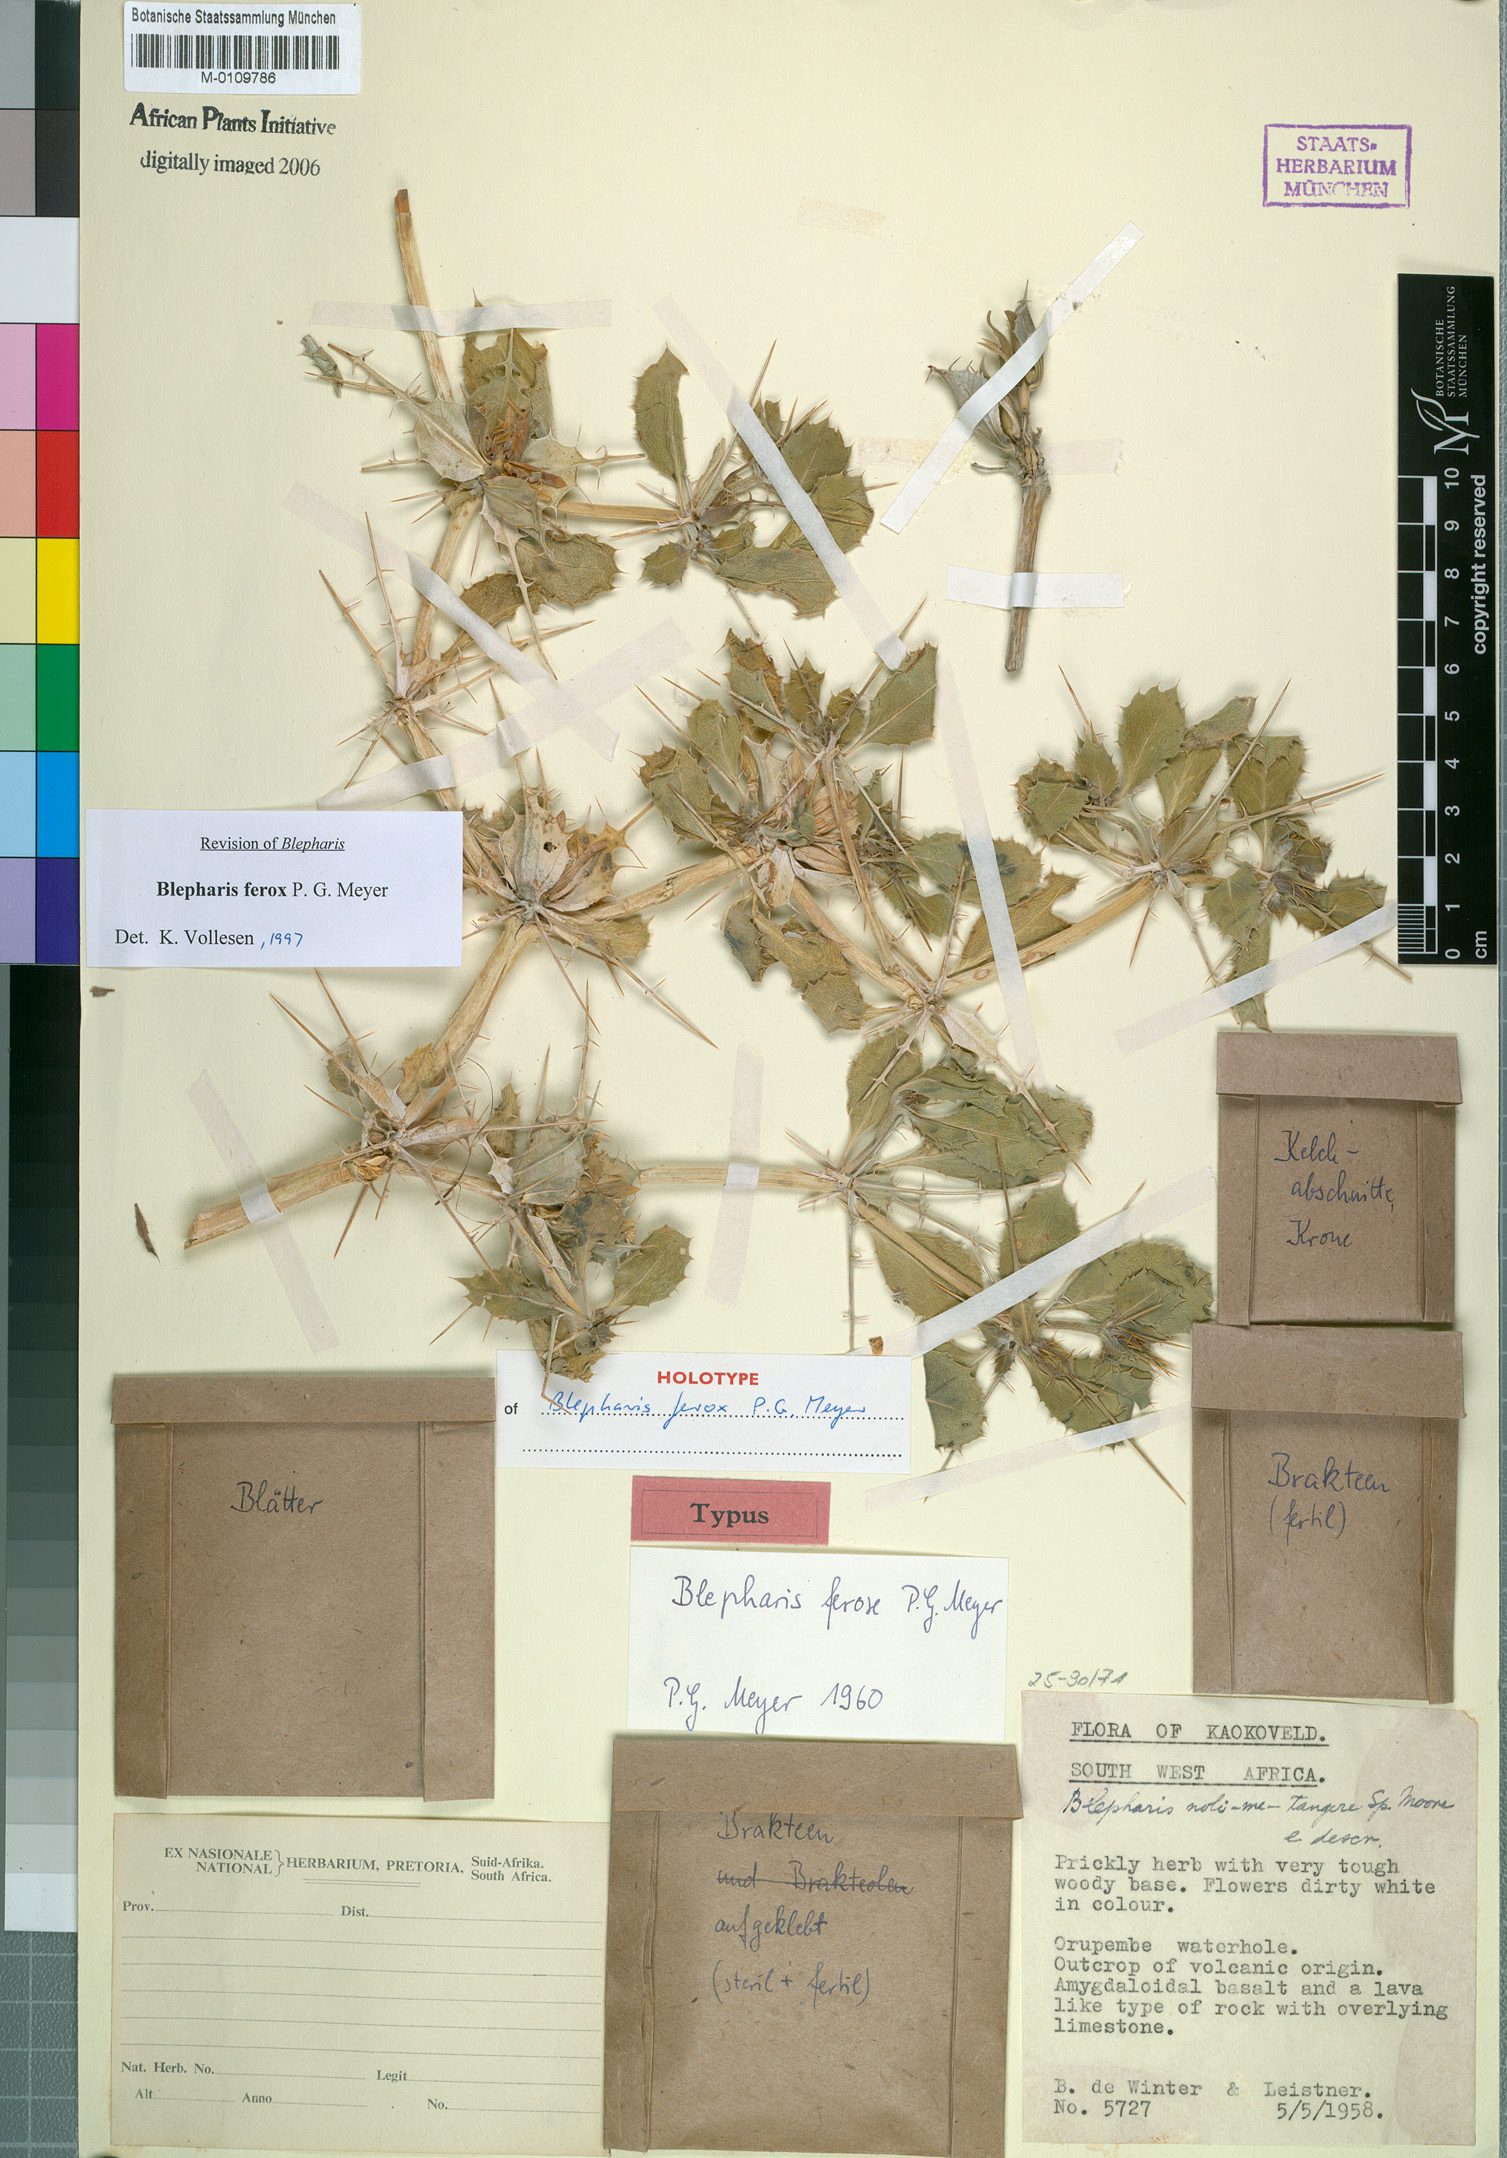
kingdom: Plantae
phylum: Tracheophyta
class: Magnoliopsida
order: Lamiales
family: Acanthaceae
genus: Blepharis
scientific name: Blepharis ferox
